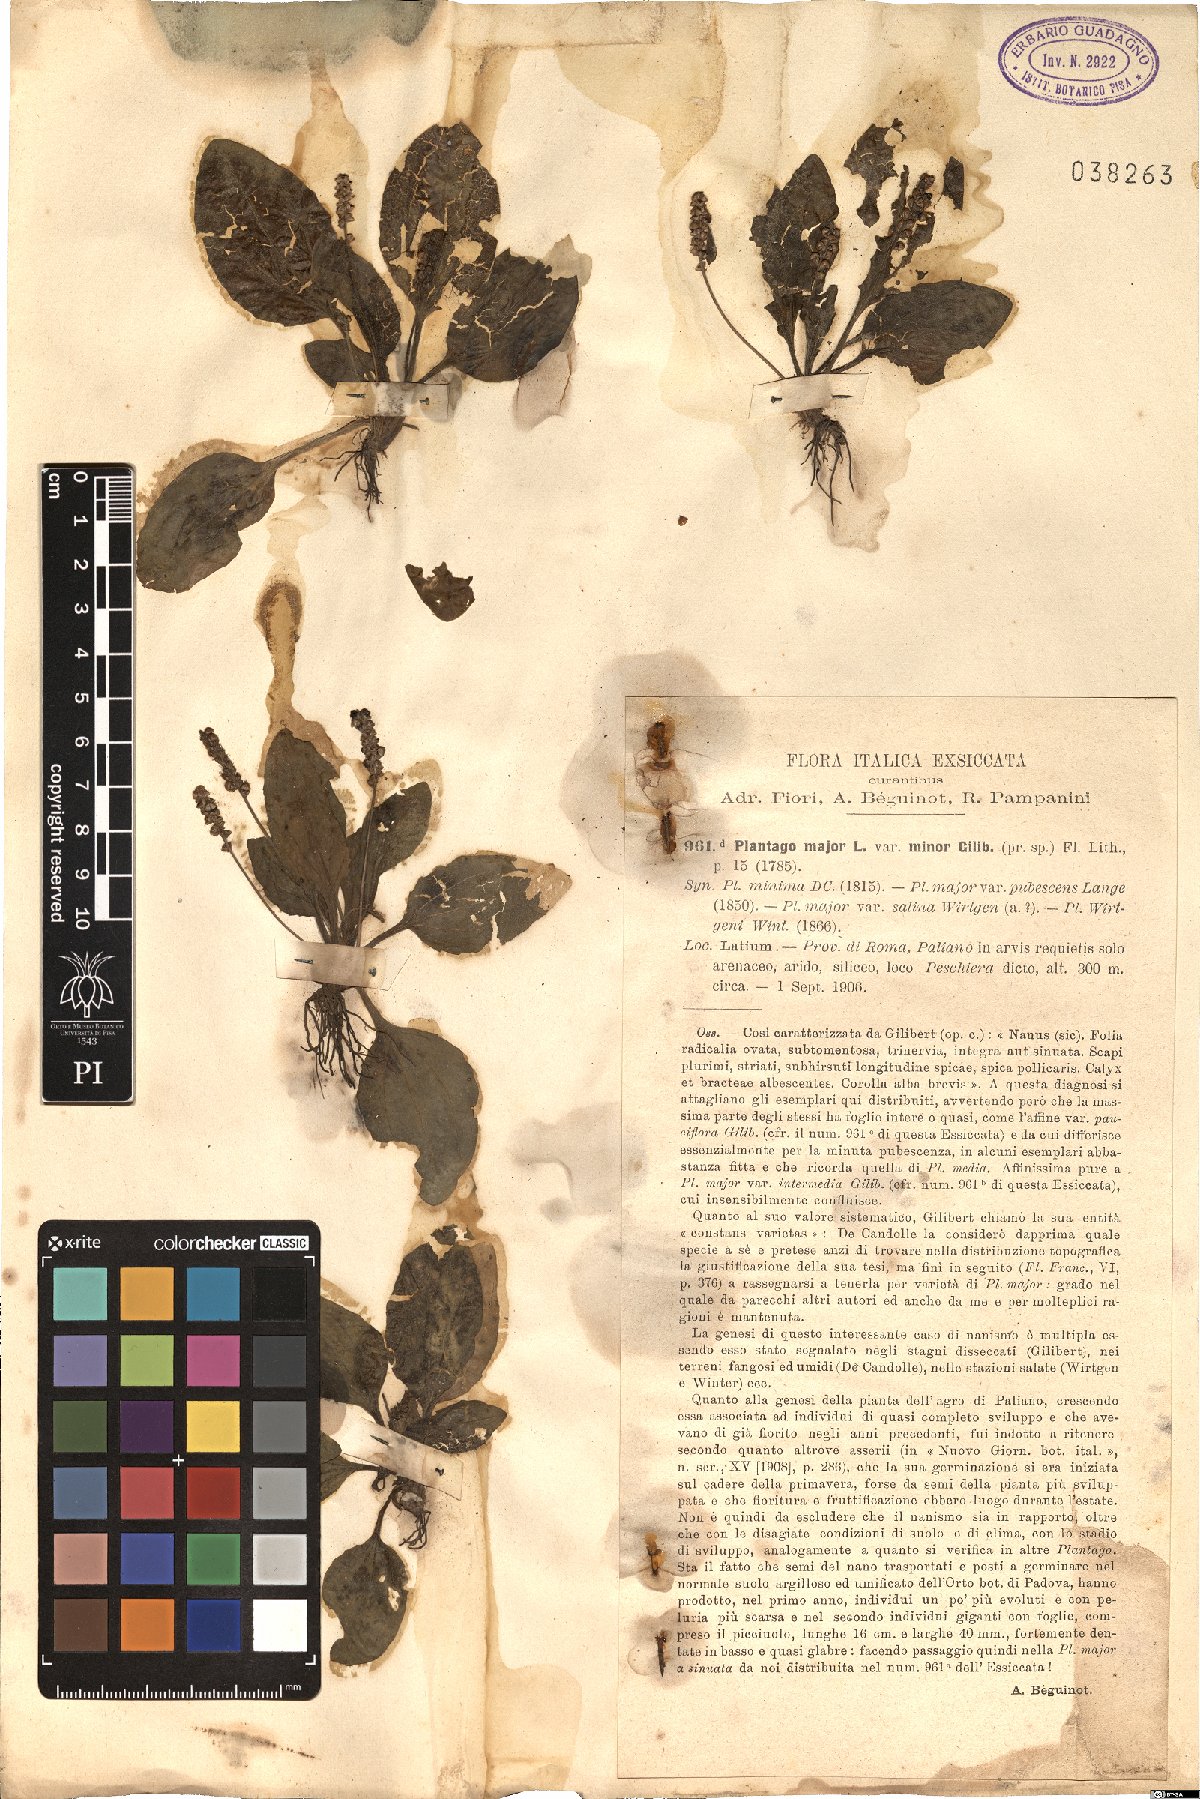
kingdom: Plantae
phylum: Tracheophyta
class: Magnoliopsida
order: Lamiales
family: Plantaginaceae
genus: Plantago
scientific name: Plantago major
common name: Common plantain
